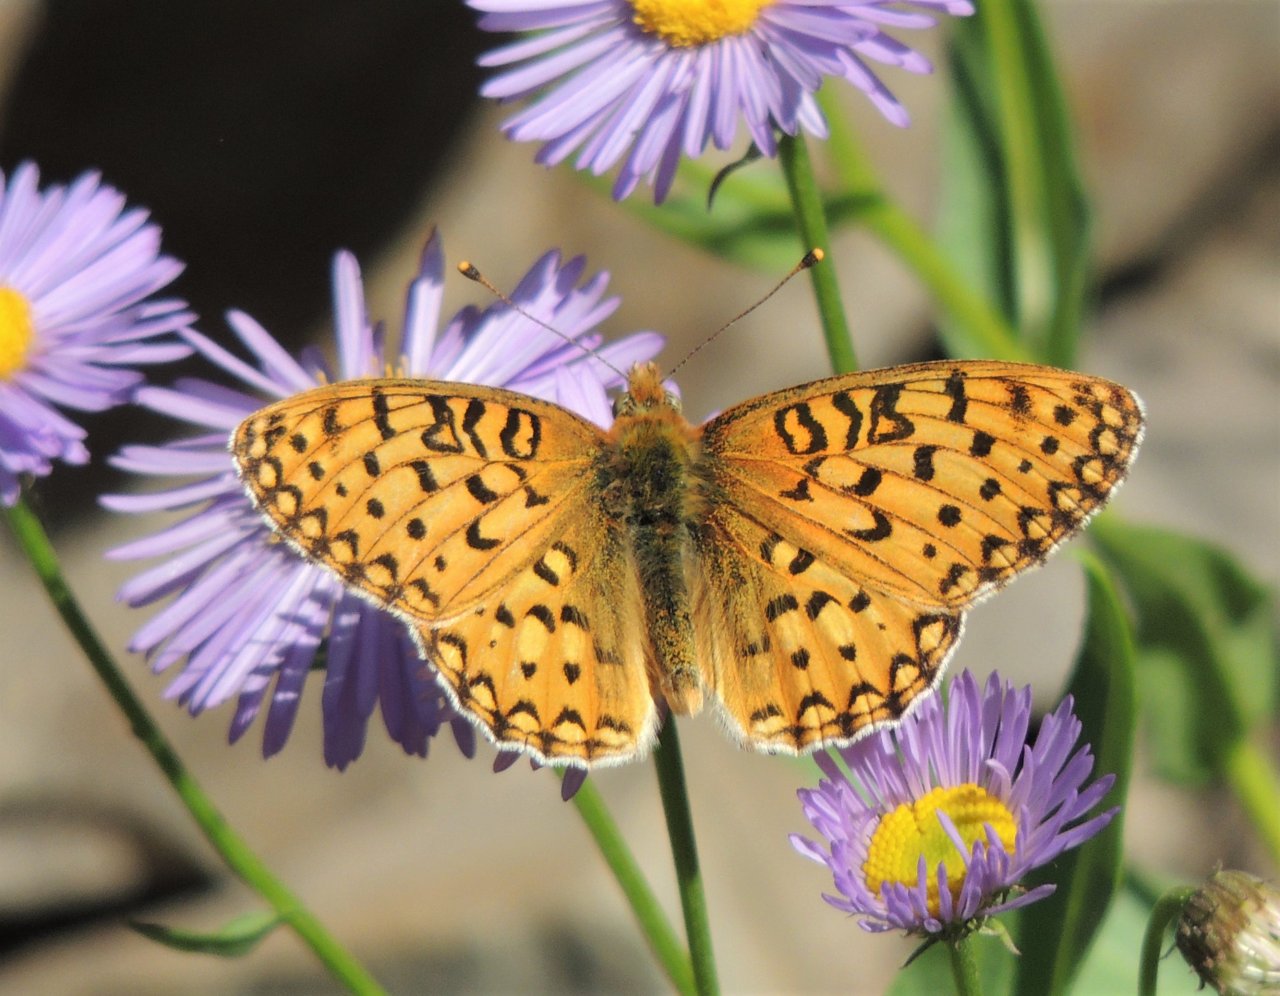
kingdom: Animalia
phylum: Arthropoda
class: Insecta
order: Lepidoptera
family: Nymphalidae
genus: Speyeria
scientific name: Speyeria callippe
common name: Callippe Fritillary
